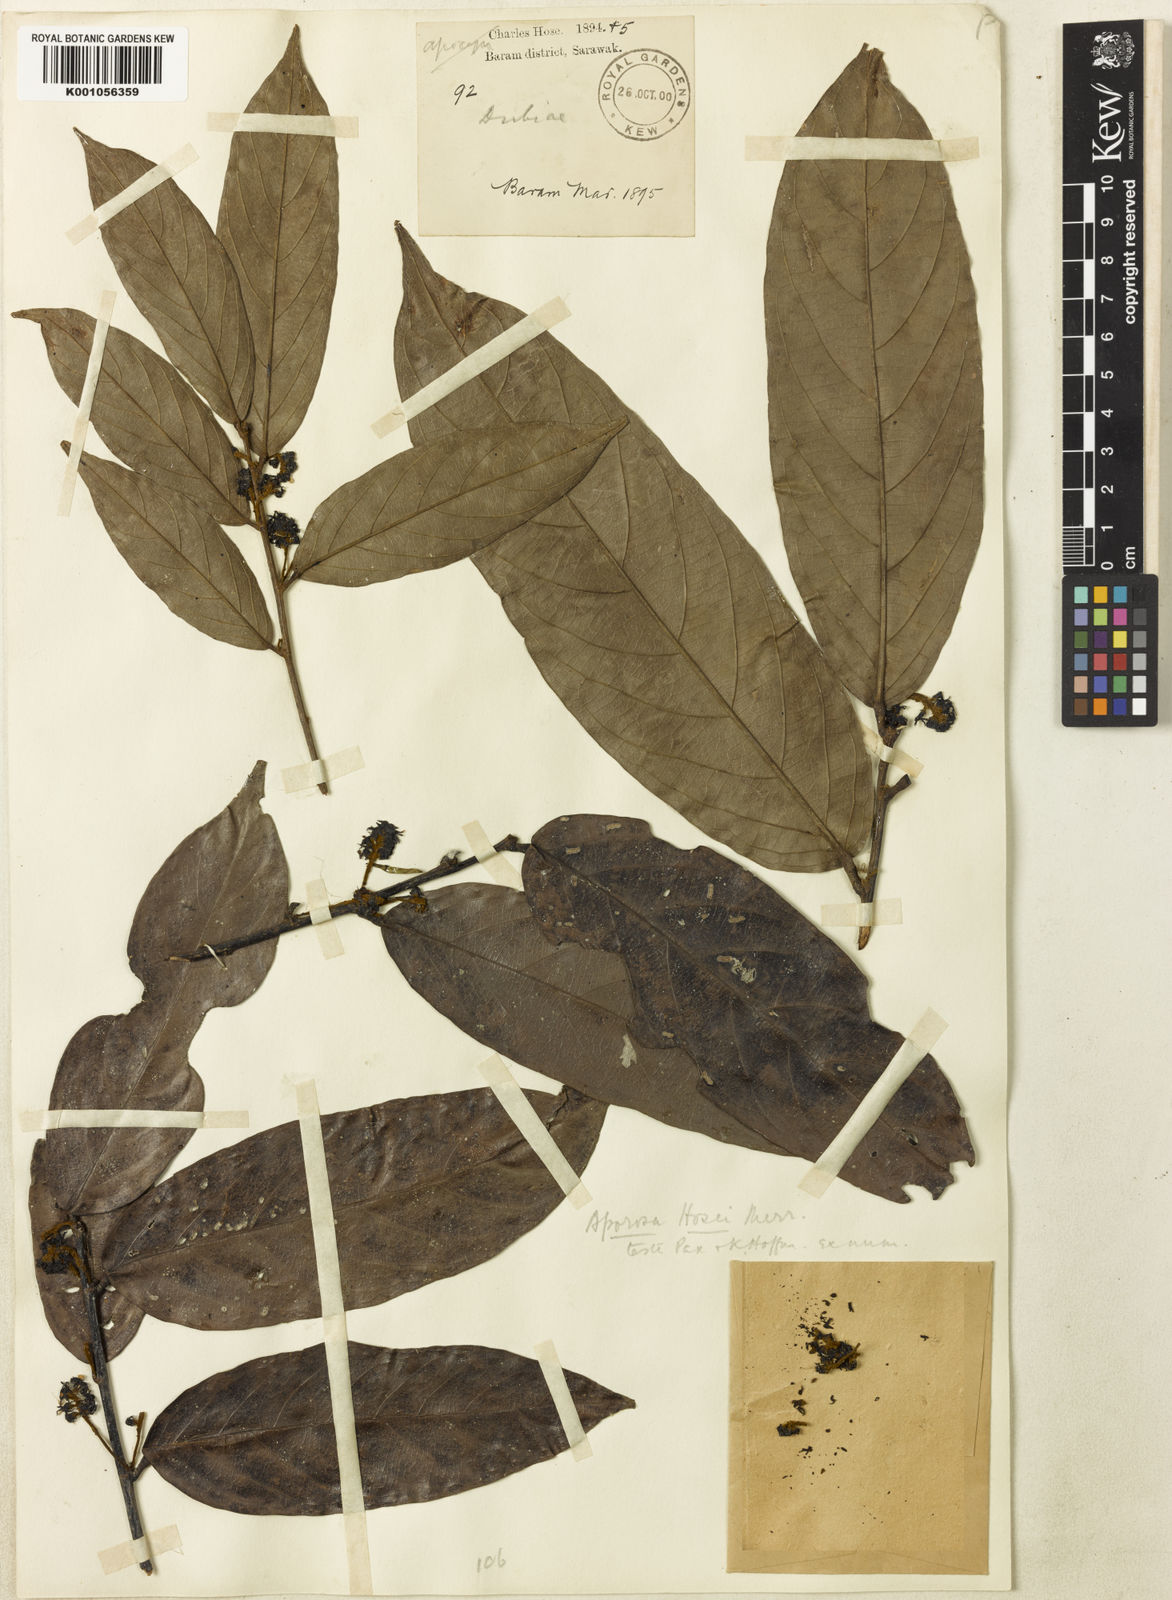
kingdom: Plantae
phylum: Tracheophyta
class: Magnoliopsida
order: Malpighiales
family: Phyllanthaceae
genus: Aporosa
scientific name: Aporosa falcifera
